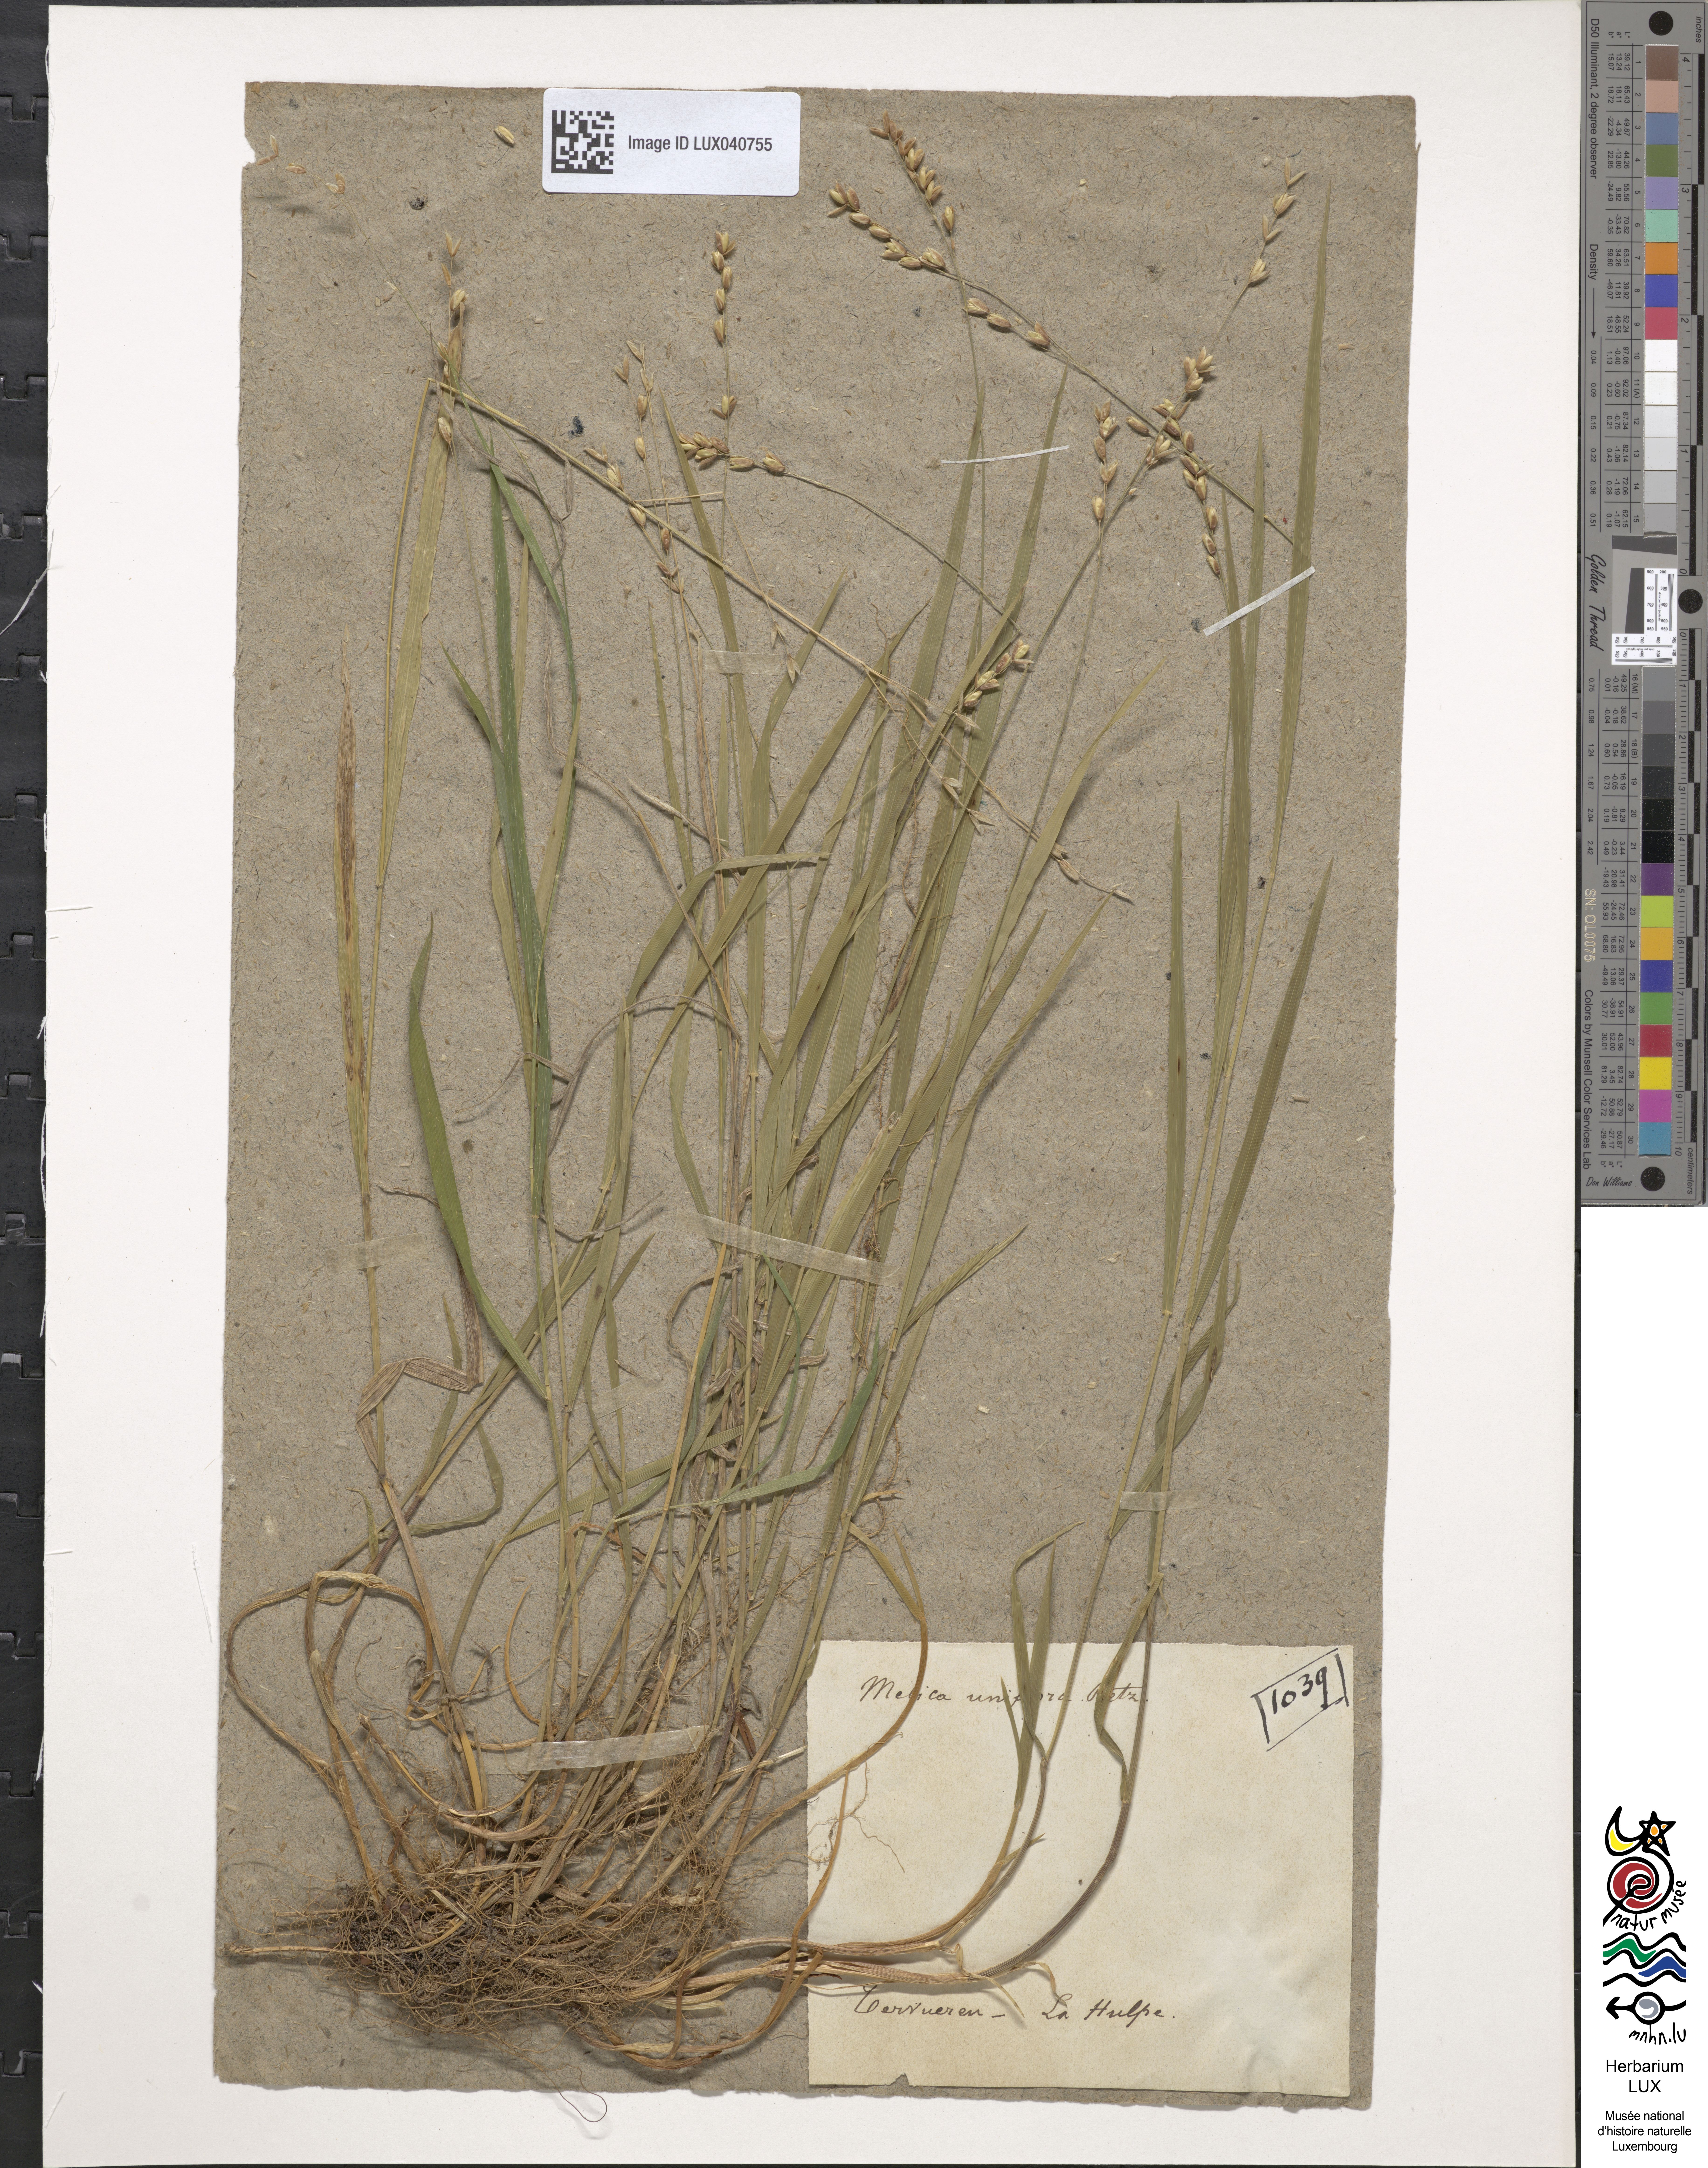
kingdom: Plantae
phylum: Tracheophyta
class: Liliopsida
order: Poales
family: Poaceae
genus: Melica
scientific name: Melica uniflora
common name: Wood melick
